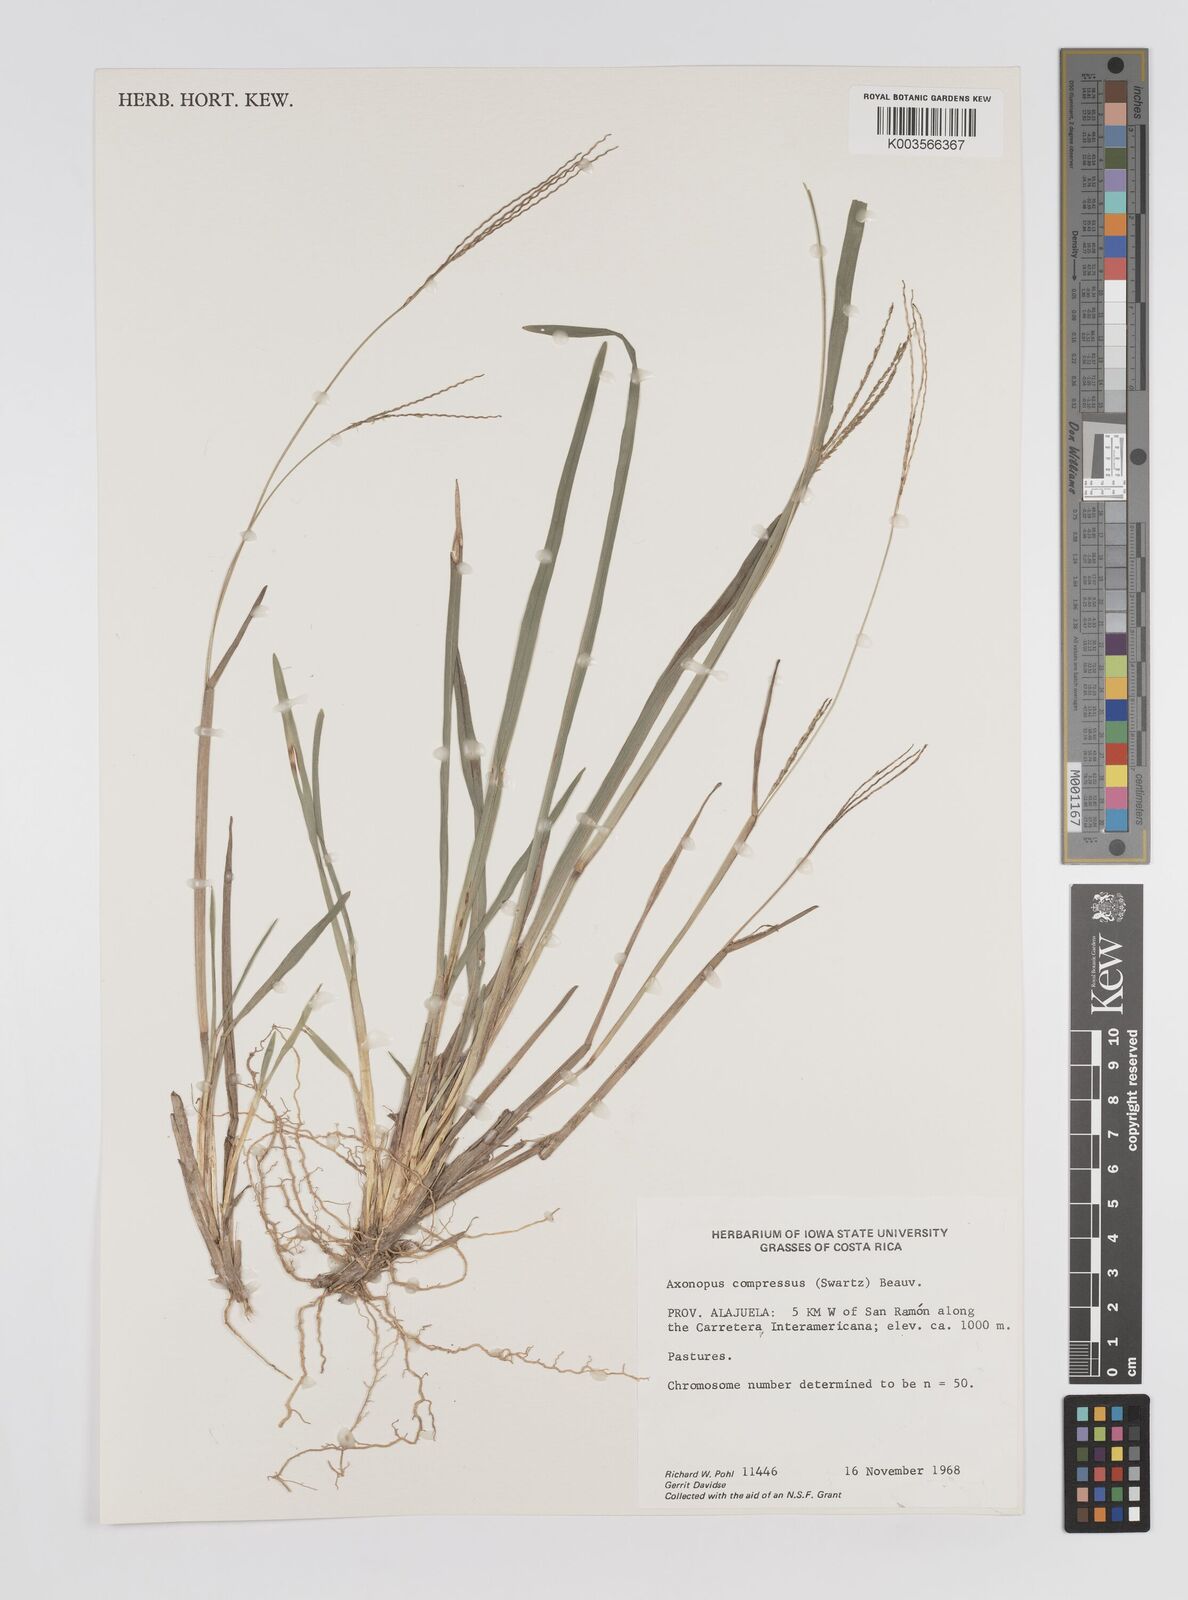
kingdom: Plantae
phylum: Tracheophyta
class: Liliopsida
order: Poales
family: Poaceae
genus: Axonopus
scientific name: Axonopus compressus
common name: American carpet grass
